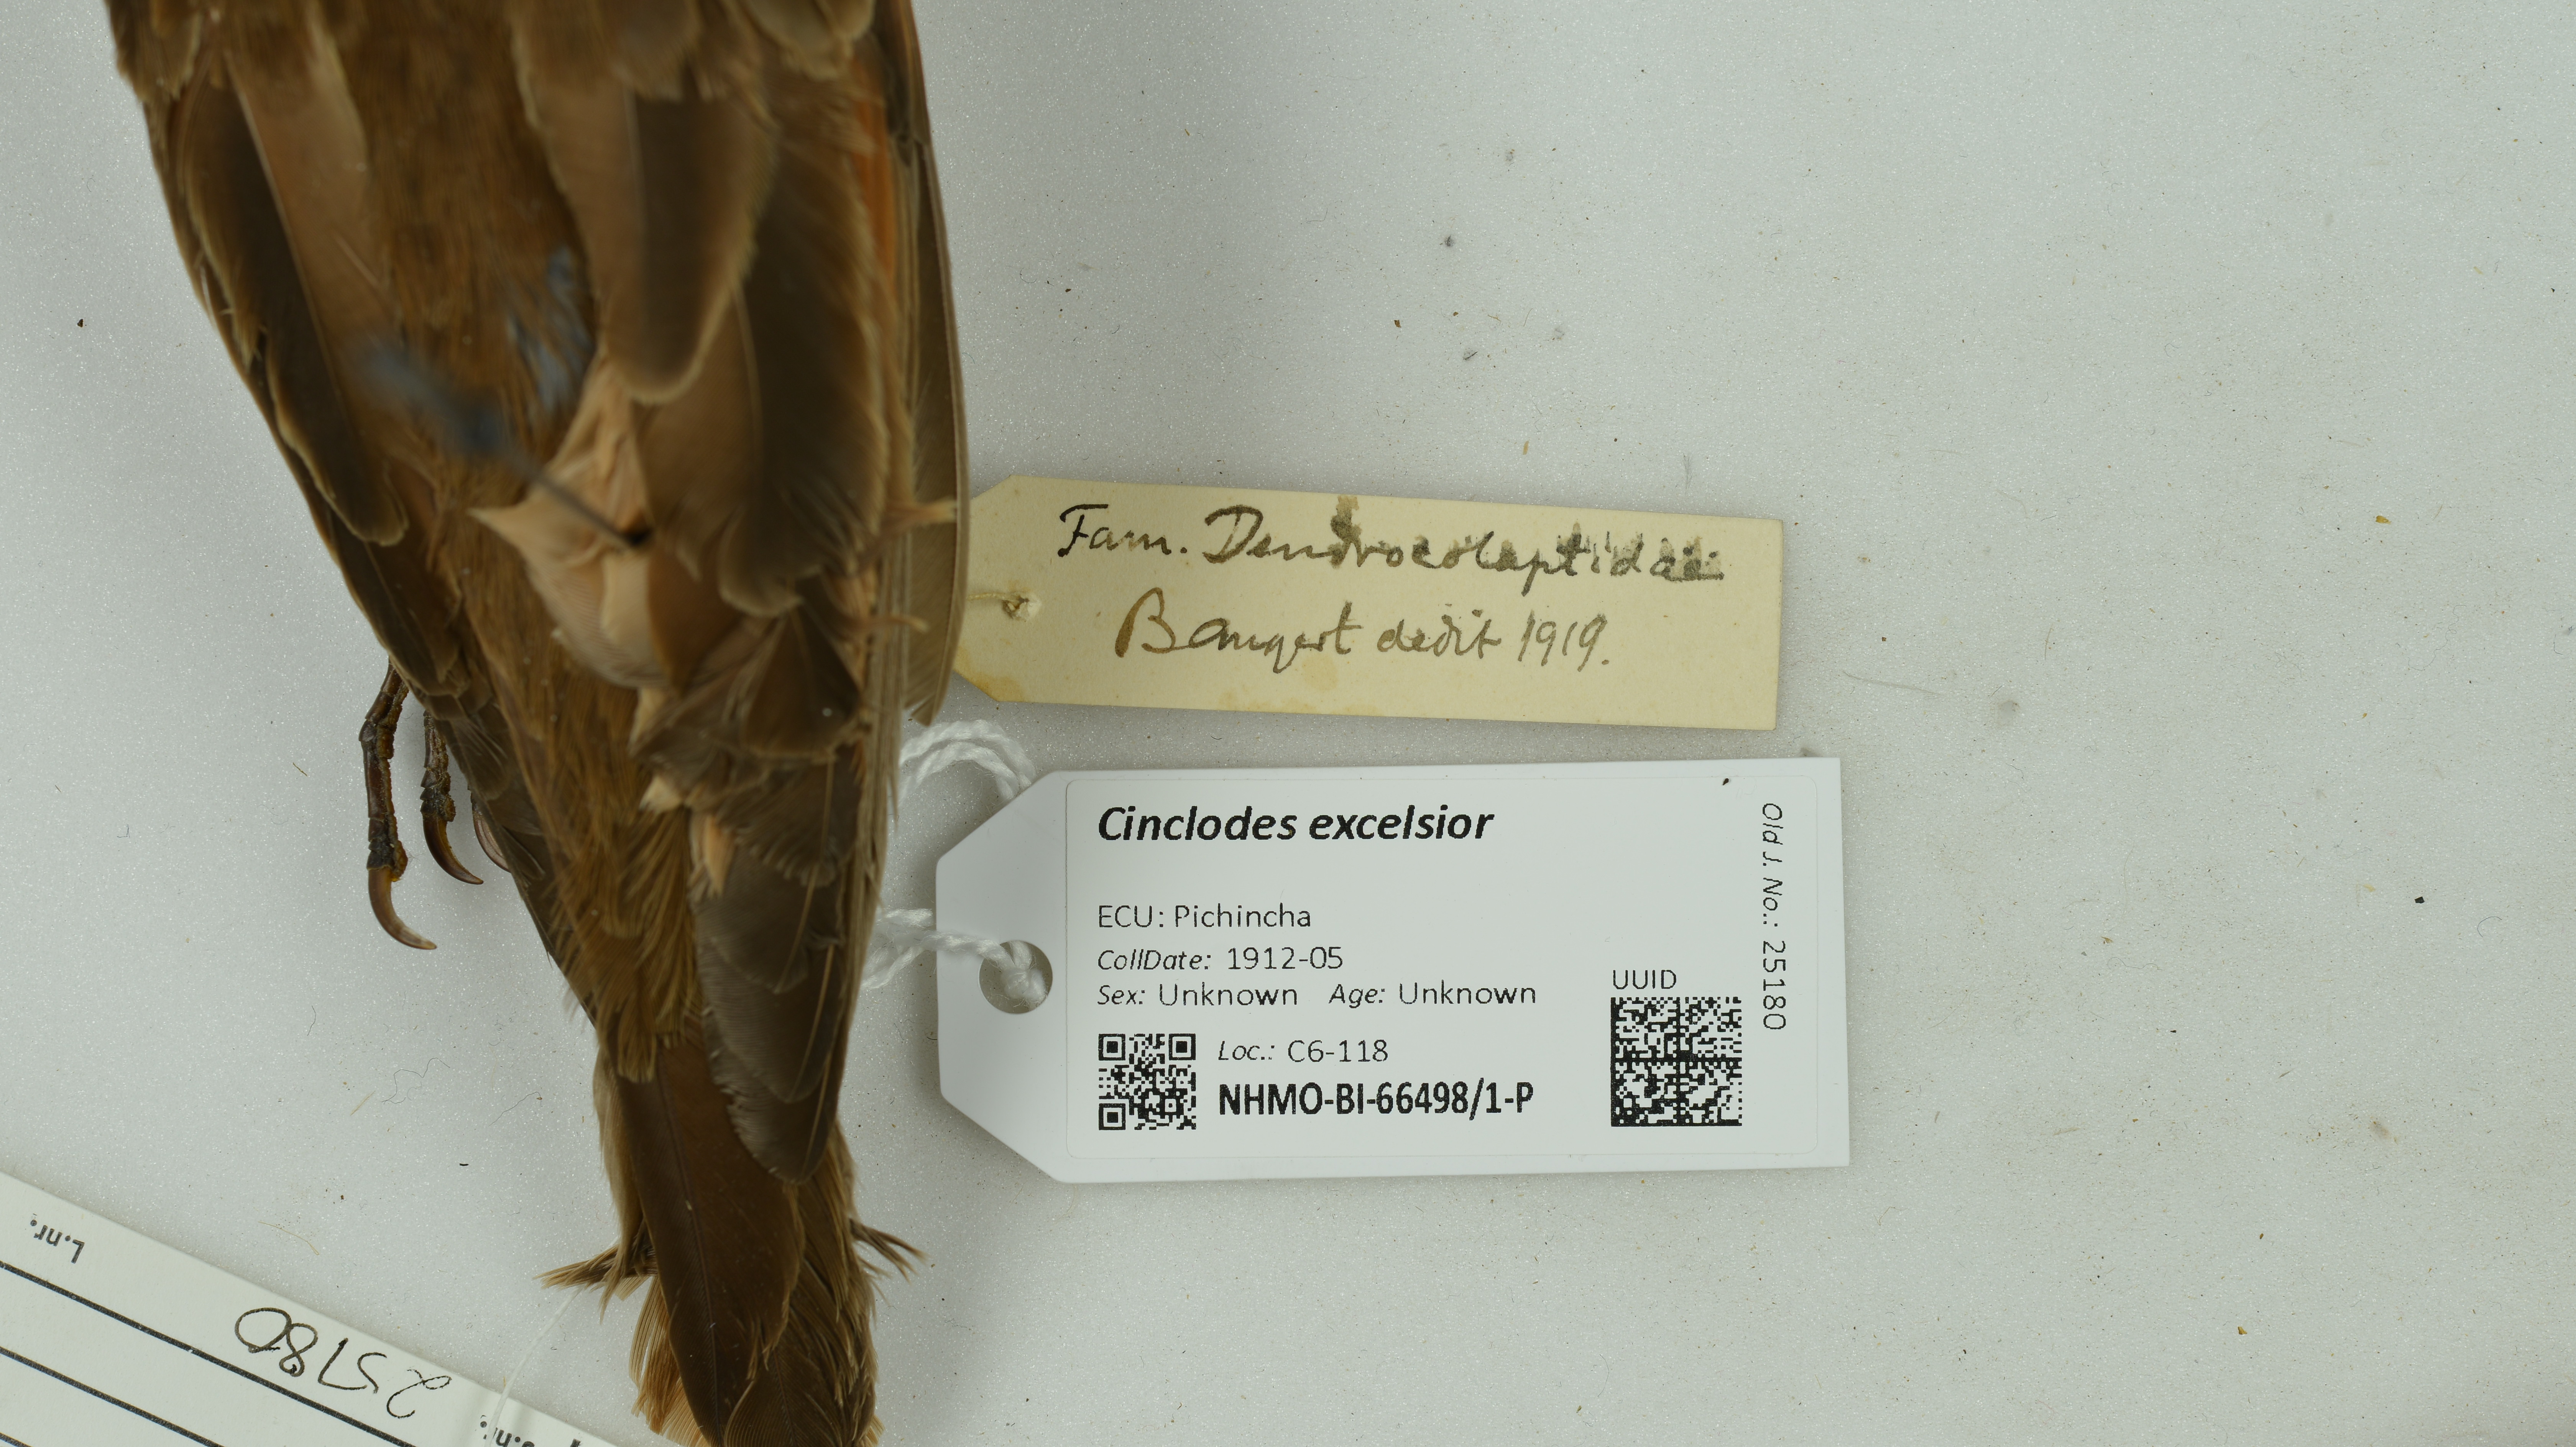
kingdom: Animalia
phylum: Chordata
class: Aves
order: Passeriformes
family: Furnariidae
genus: Cinclodes
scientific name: Cinclodes excelsior
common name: Stout-billed cinclodes
